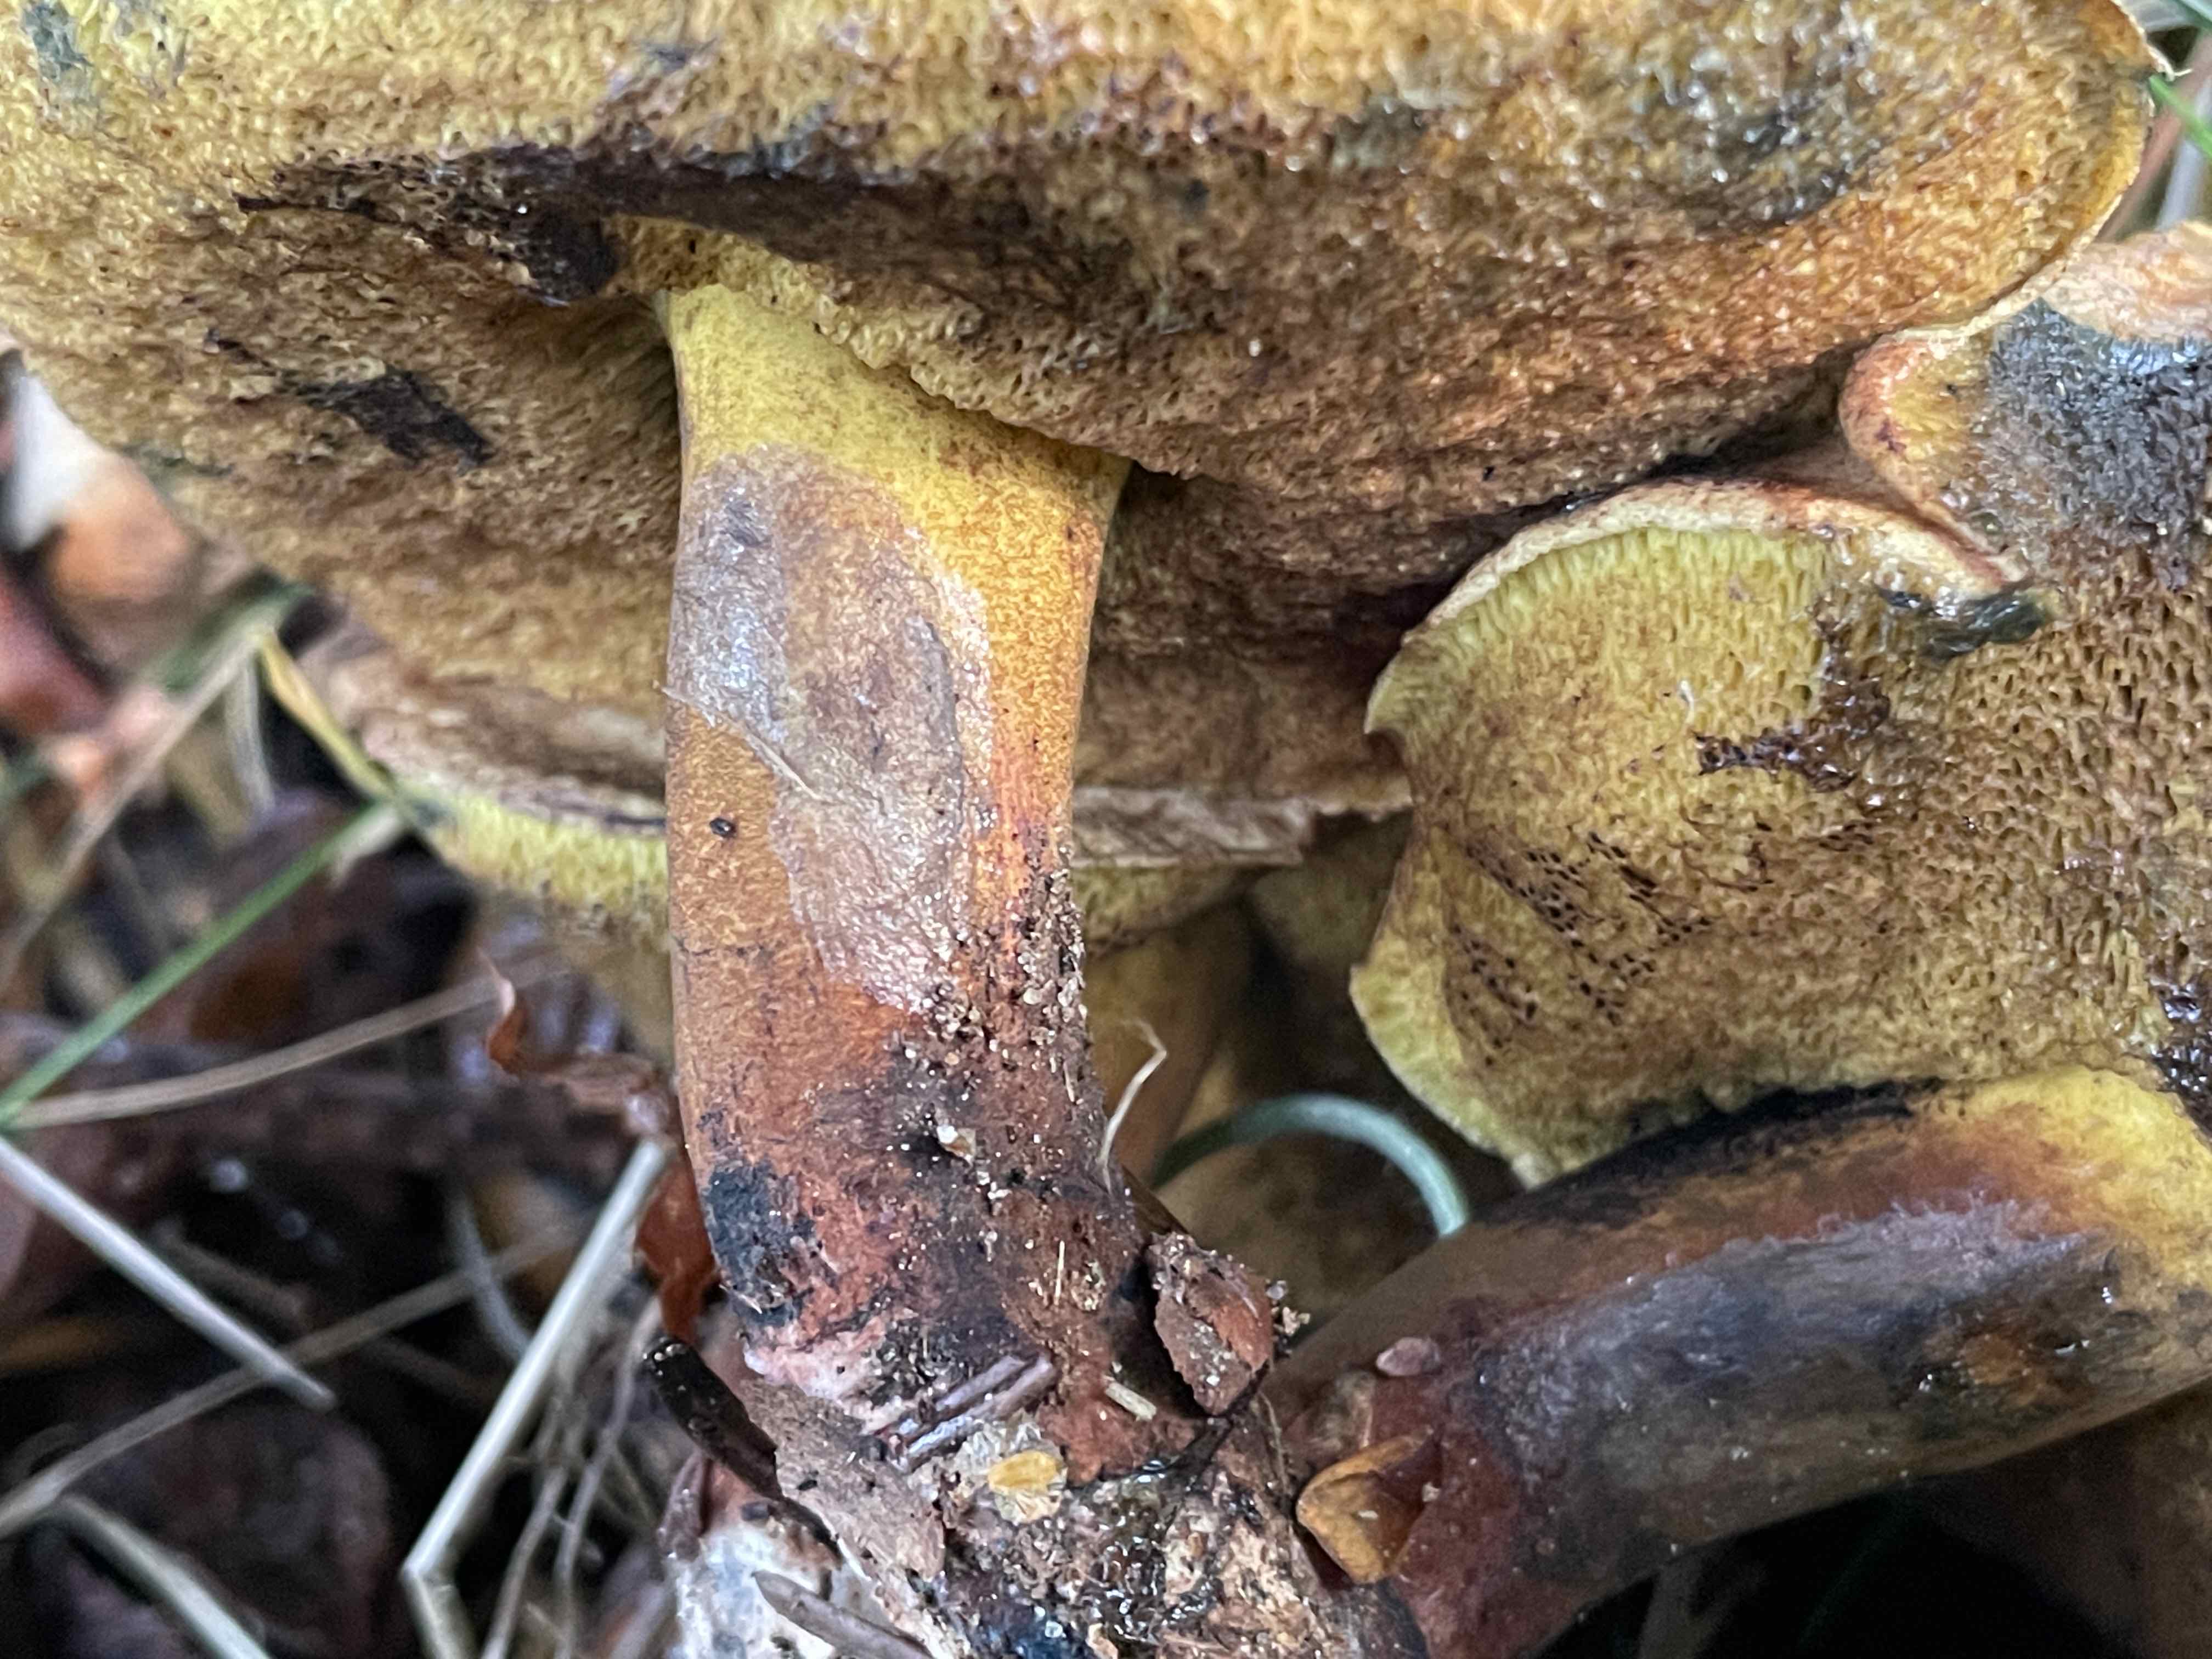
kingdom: Fungi
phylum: Basidiomycota
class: Agaricomycetes
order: Boletales
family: Boletaceae
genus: Cyanoboletus
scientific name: Cyanoboletus pulverulentus
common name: sortblånende rørhat
